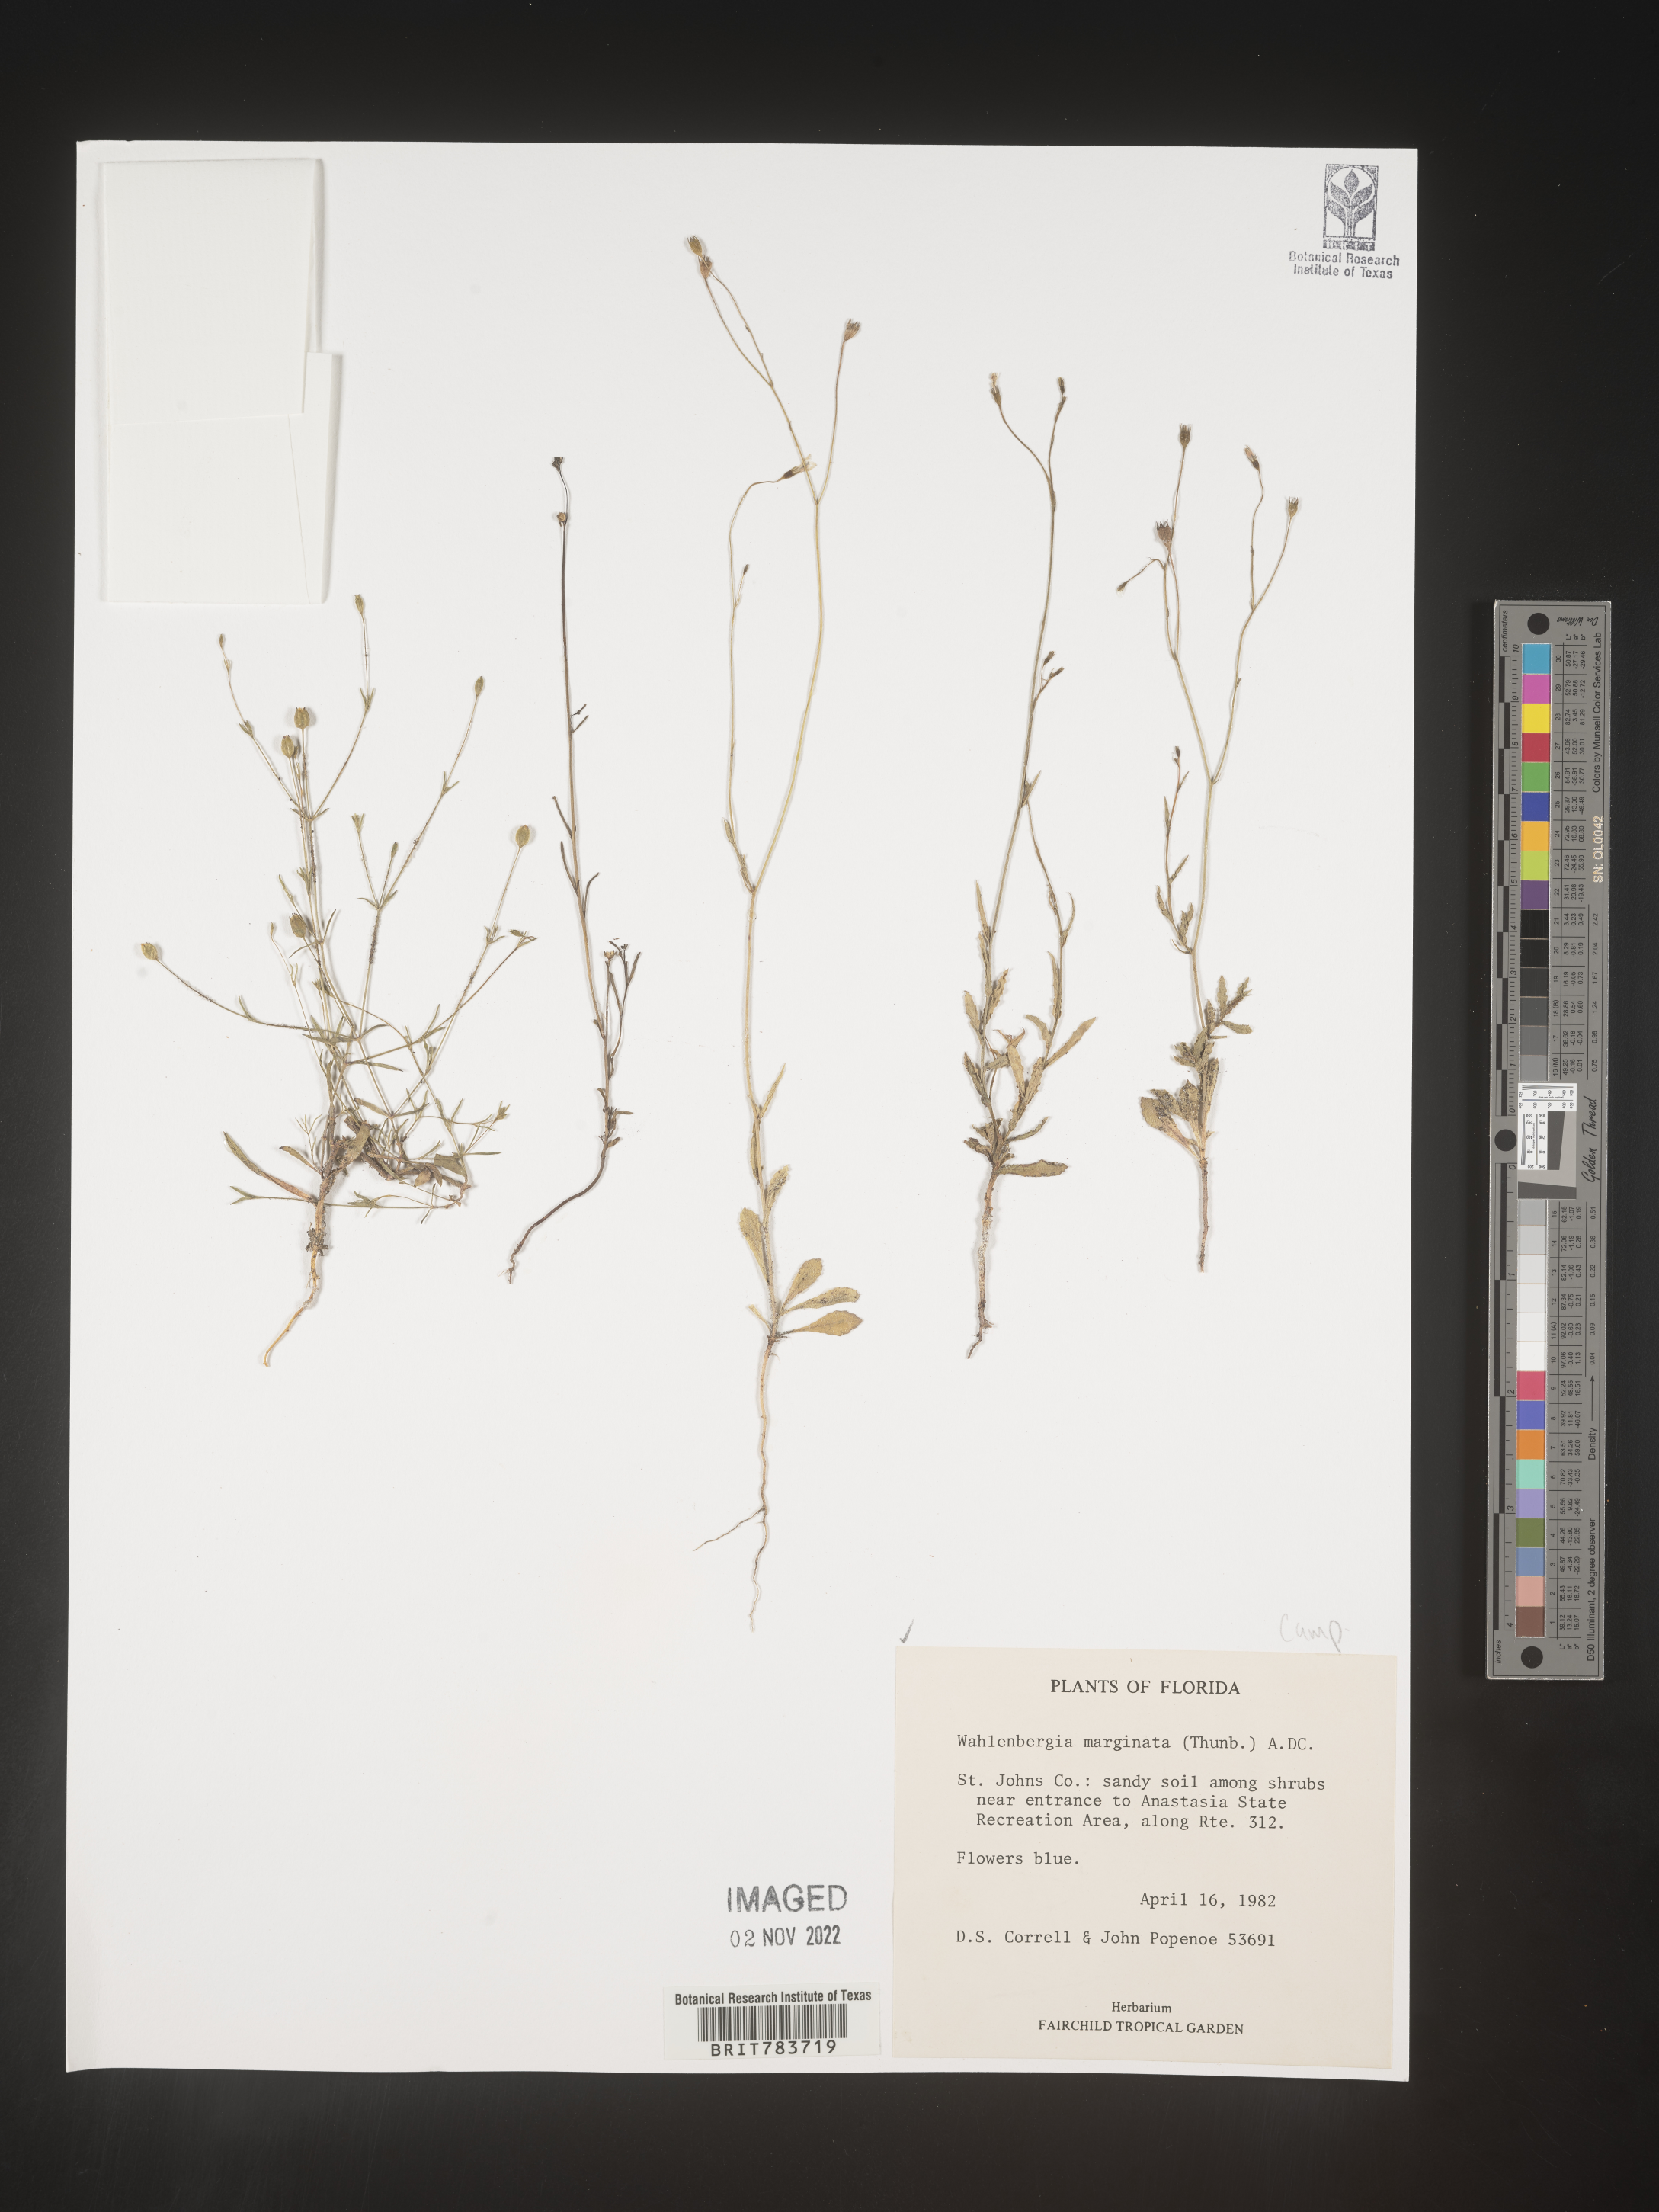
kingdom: Plantae
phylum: Tracheophyta
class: Magnoliopsida
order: Asterales
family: Campanulaceae
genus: Wahlenbergia
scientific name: Wahlenbergia marginata
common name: Southern rockbell
